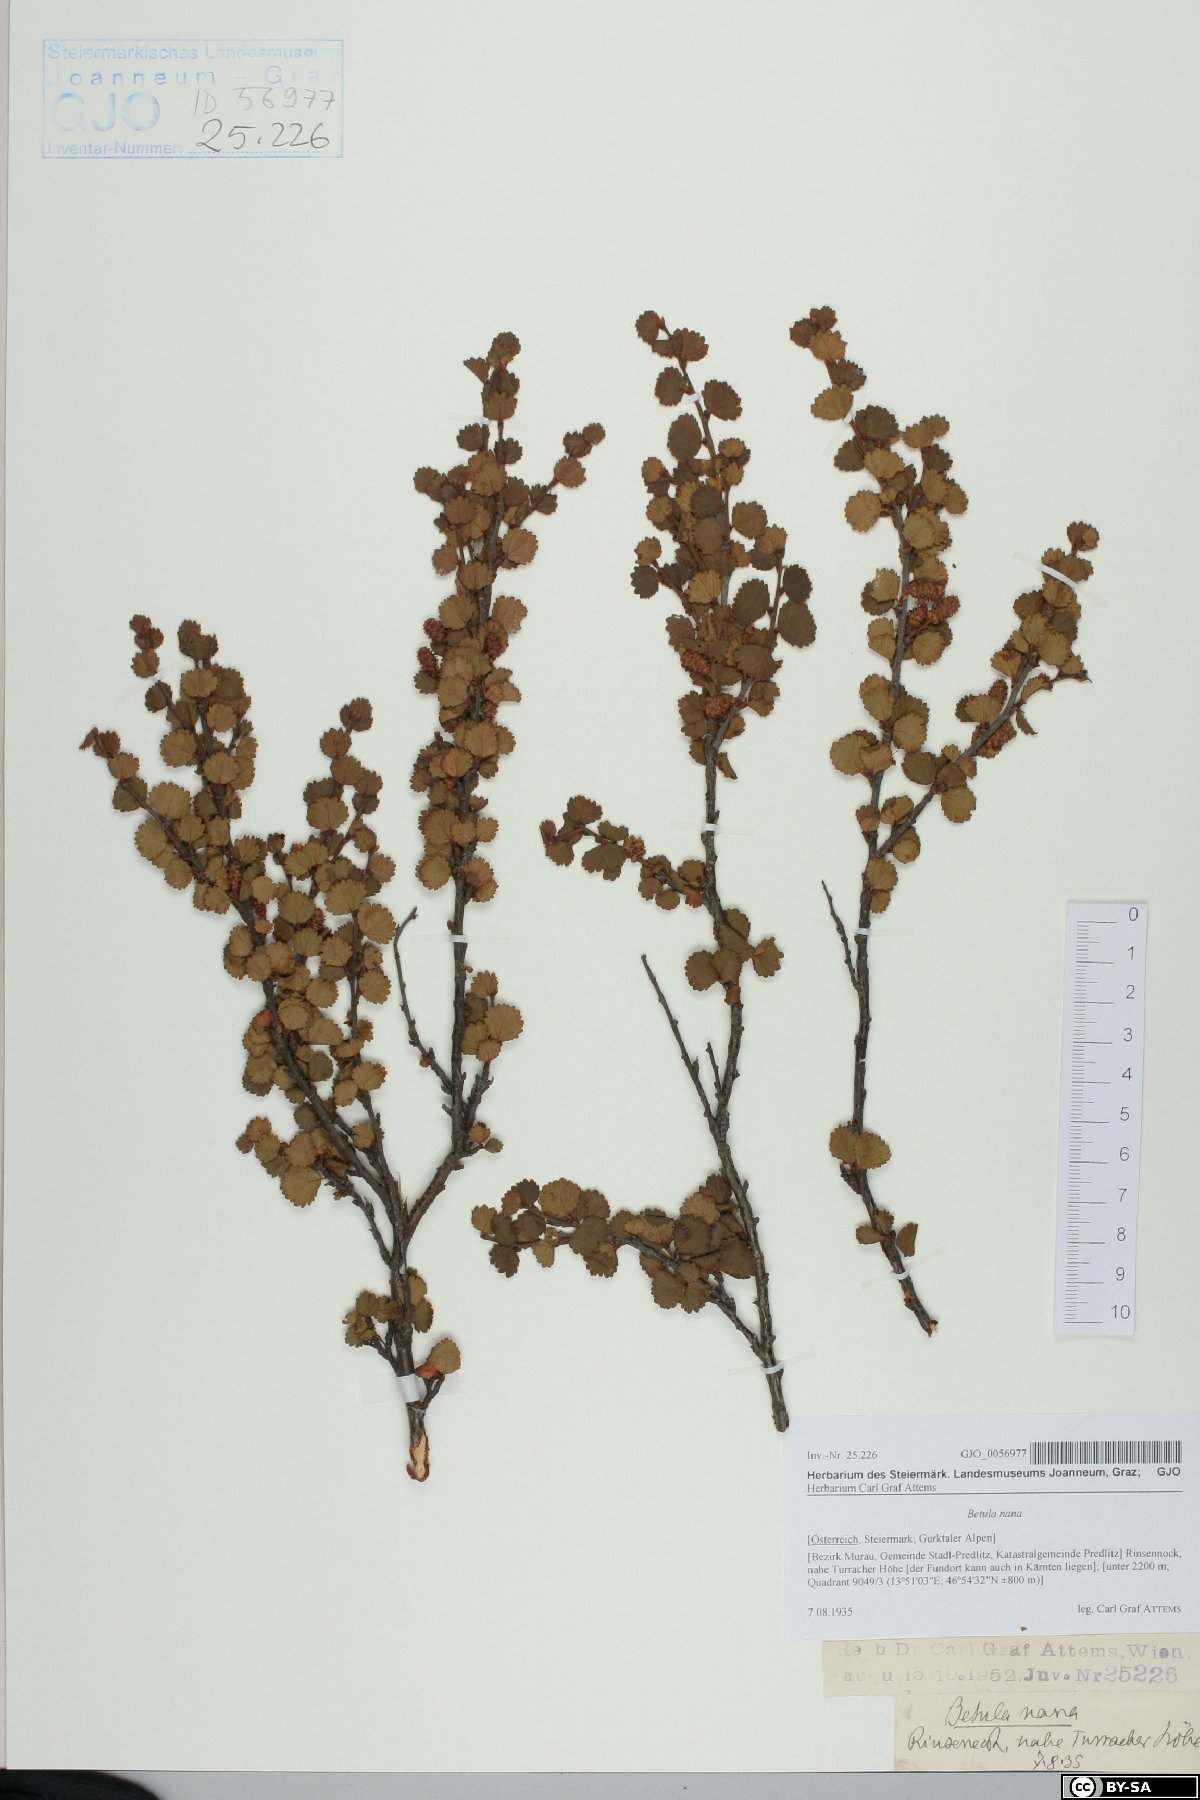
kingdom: Plantae
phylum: Tracheophyta
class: Magnoliopsida
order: Fagales
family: Betulaceae
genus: Betula
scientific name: Betula nana
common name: Arctic dwarf birch
